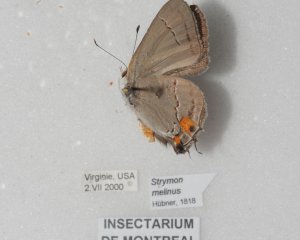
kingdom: Animalia
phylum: Arthropoda
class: Insecta
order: Lepidoptera
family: Lycaenidae
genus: Strymon
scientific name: Strymon melinus
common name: Gray Hairstreak
